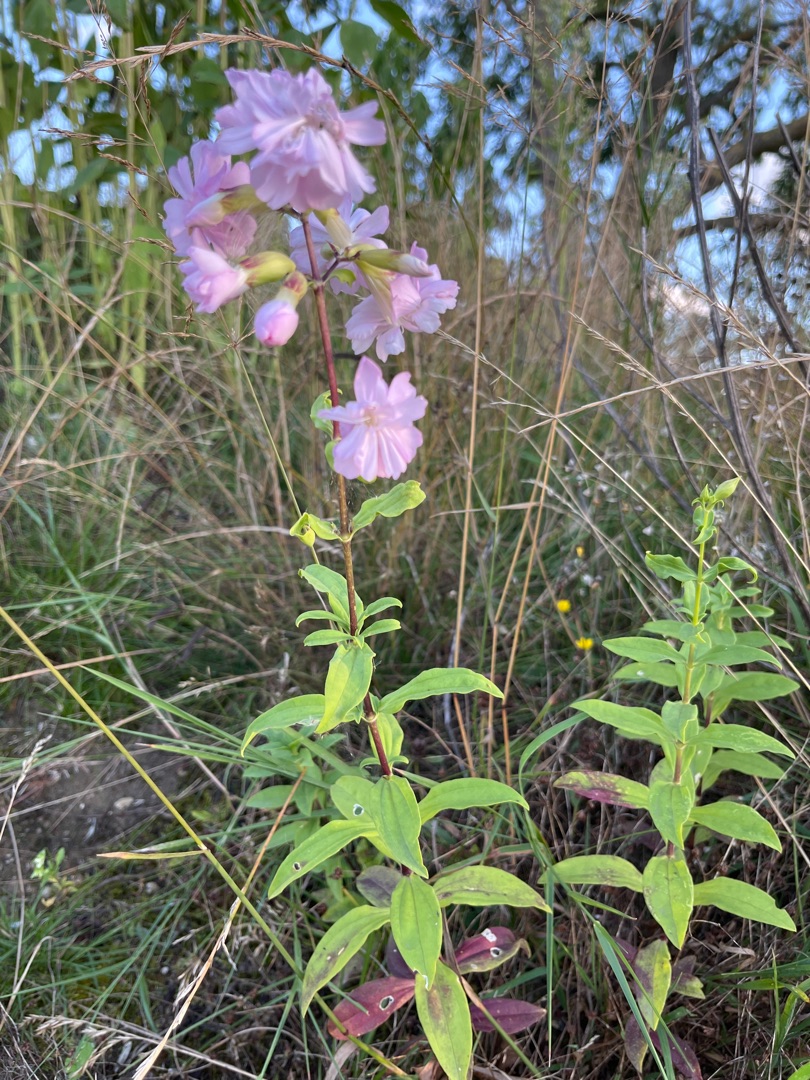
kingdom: Plantae
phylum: Tracheophyta
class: Magnoliopsida
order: Caryophyllales
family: Caryophyllaceae
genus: Saponaria
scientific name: Saponaria officinalis
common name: Sæbeurt
